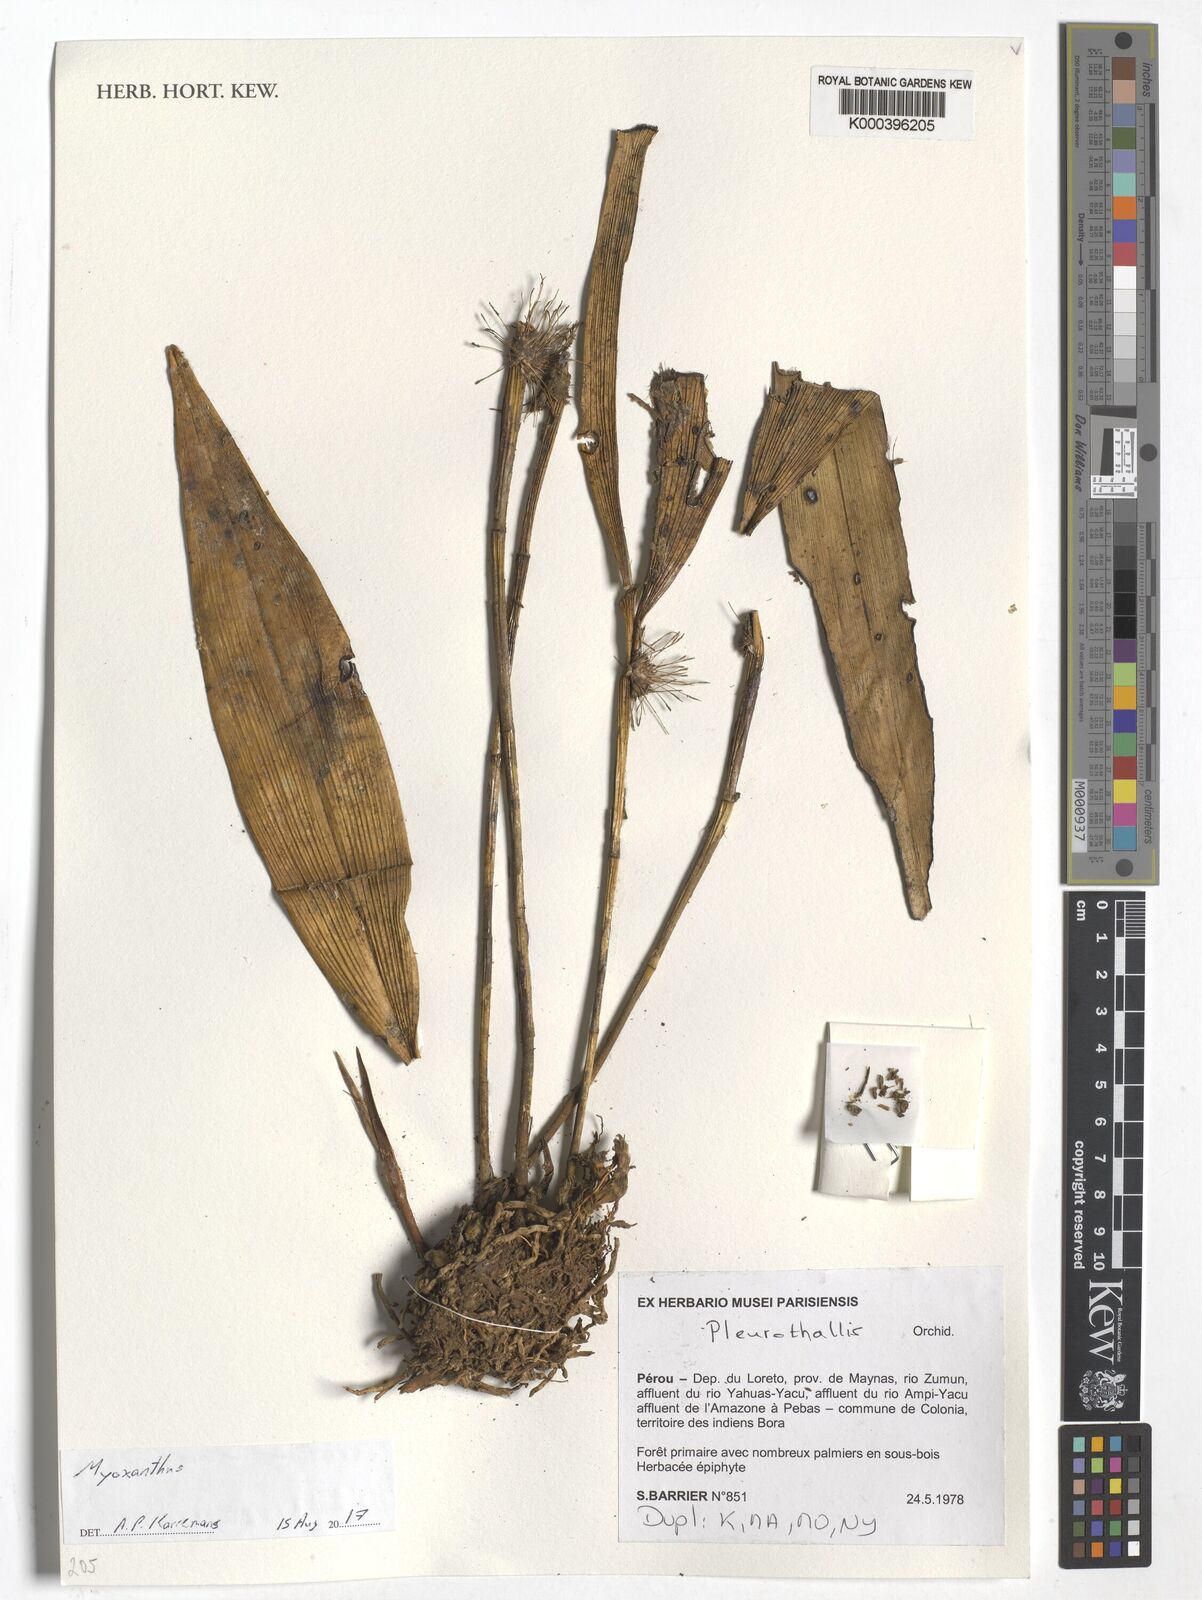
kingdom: Plantae
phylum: Tracheophyta
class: Liliopsida
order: Asparagales
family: Orchidaceae
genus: Myoxanthus
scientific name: Myoxanthus
